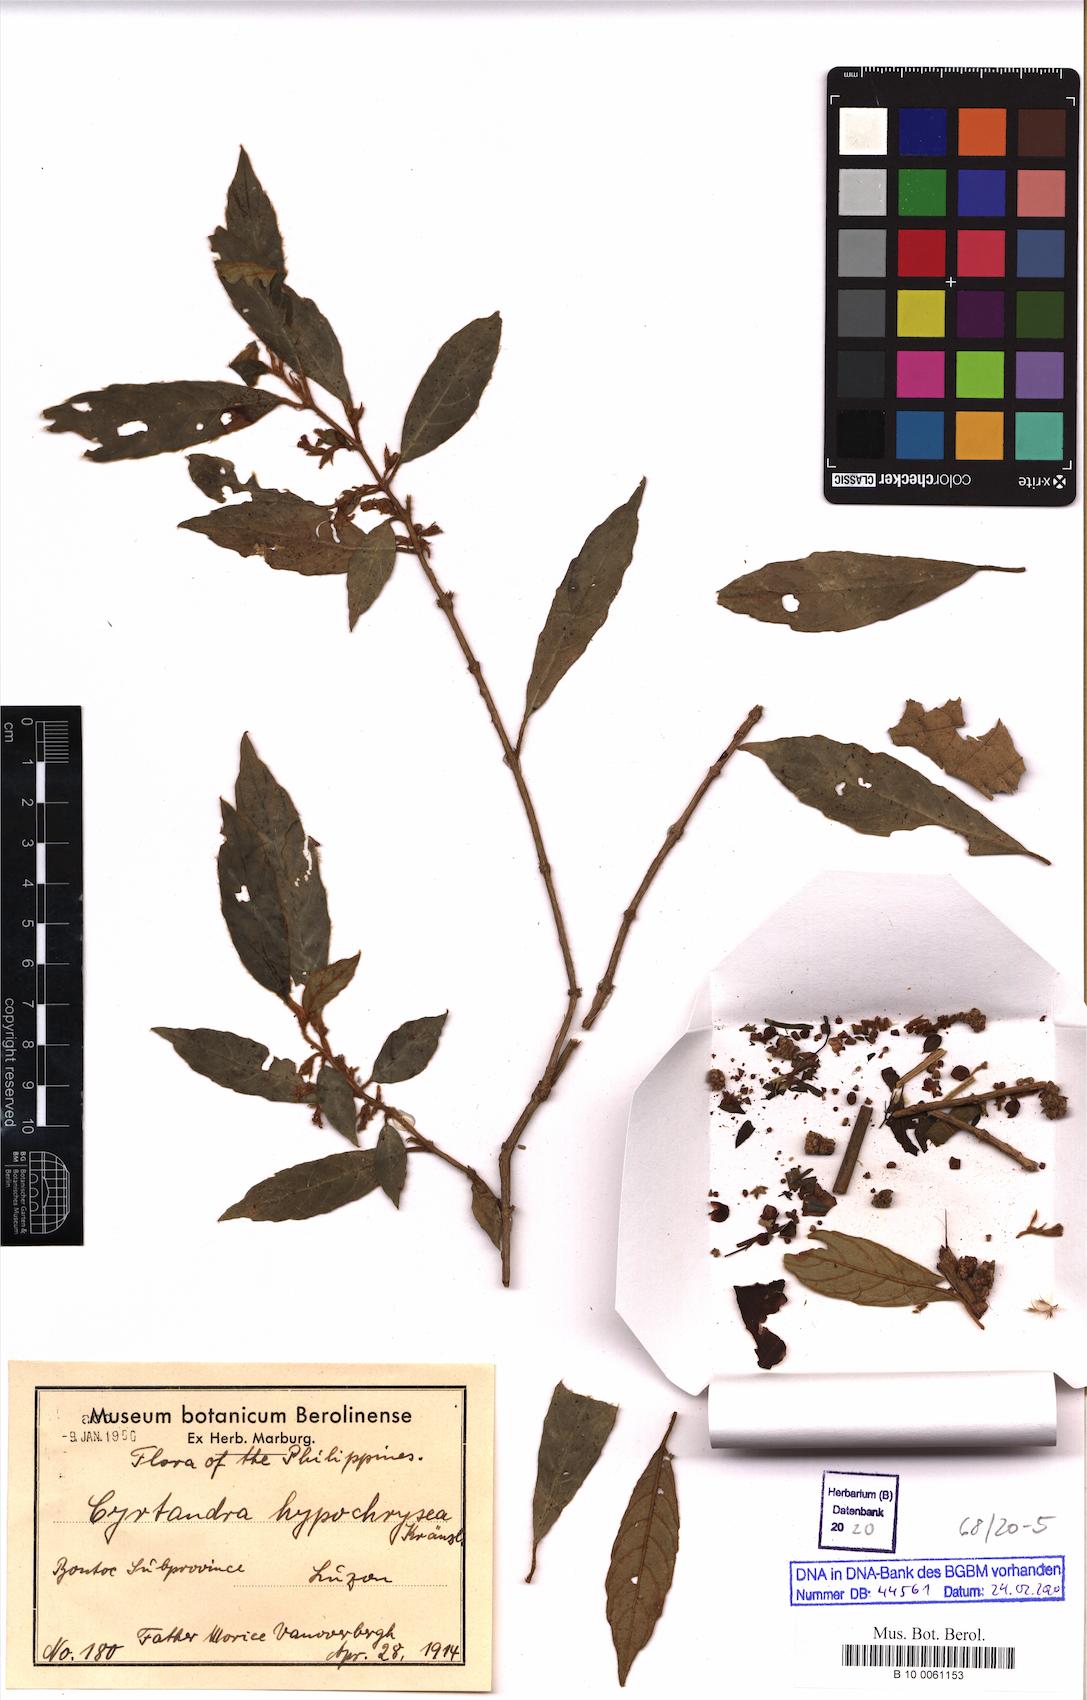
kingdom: Plantae
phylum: Tracheophyta
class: Magnoliopsida
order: Lamiales
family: Gesneriaceae
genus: Cyrtandra
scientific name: Cyrtandra hypochrysea
